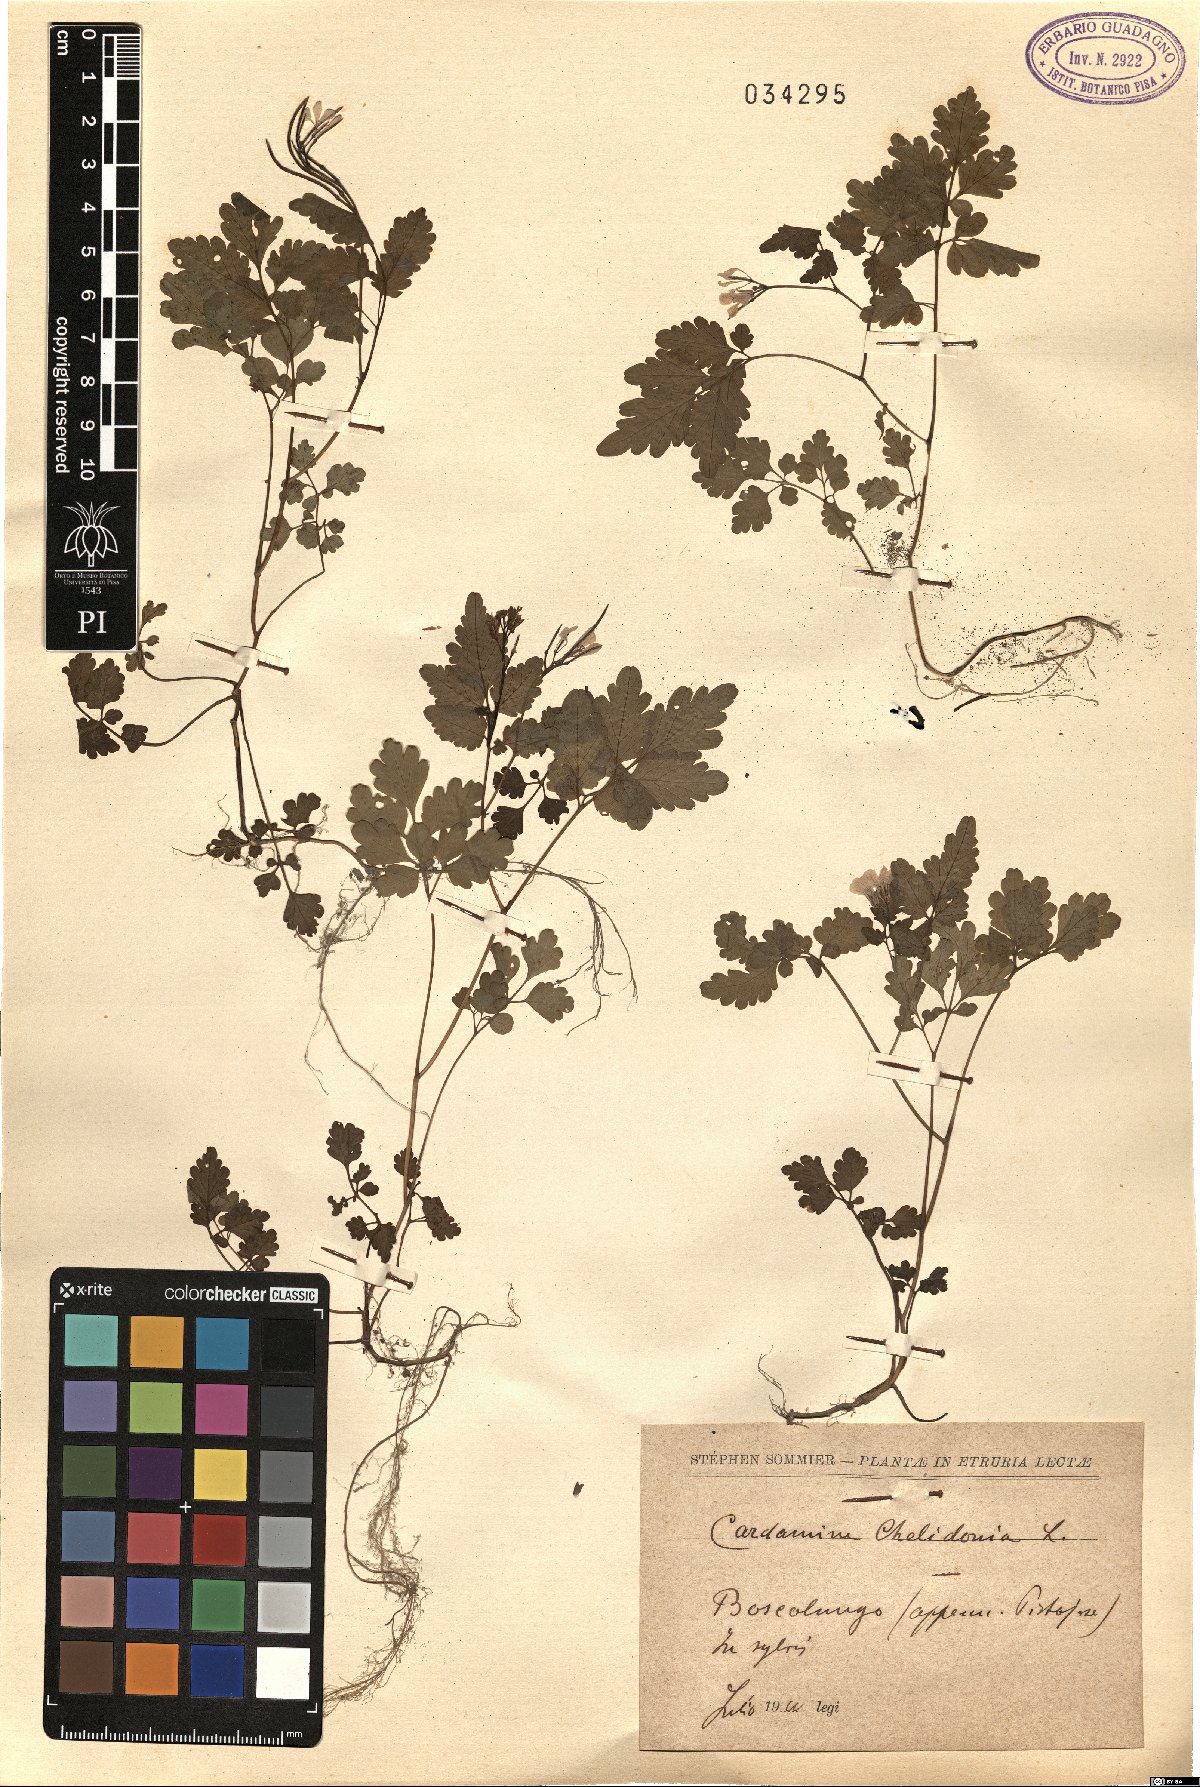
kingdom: Plantae
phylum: Tracheophyta
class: Magnoliopsida
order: Brassicales
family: Brassicaceae
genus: Cardamine
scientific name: Cardamine chelidonia
